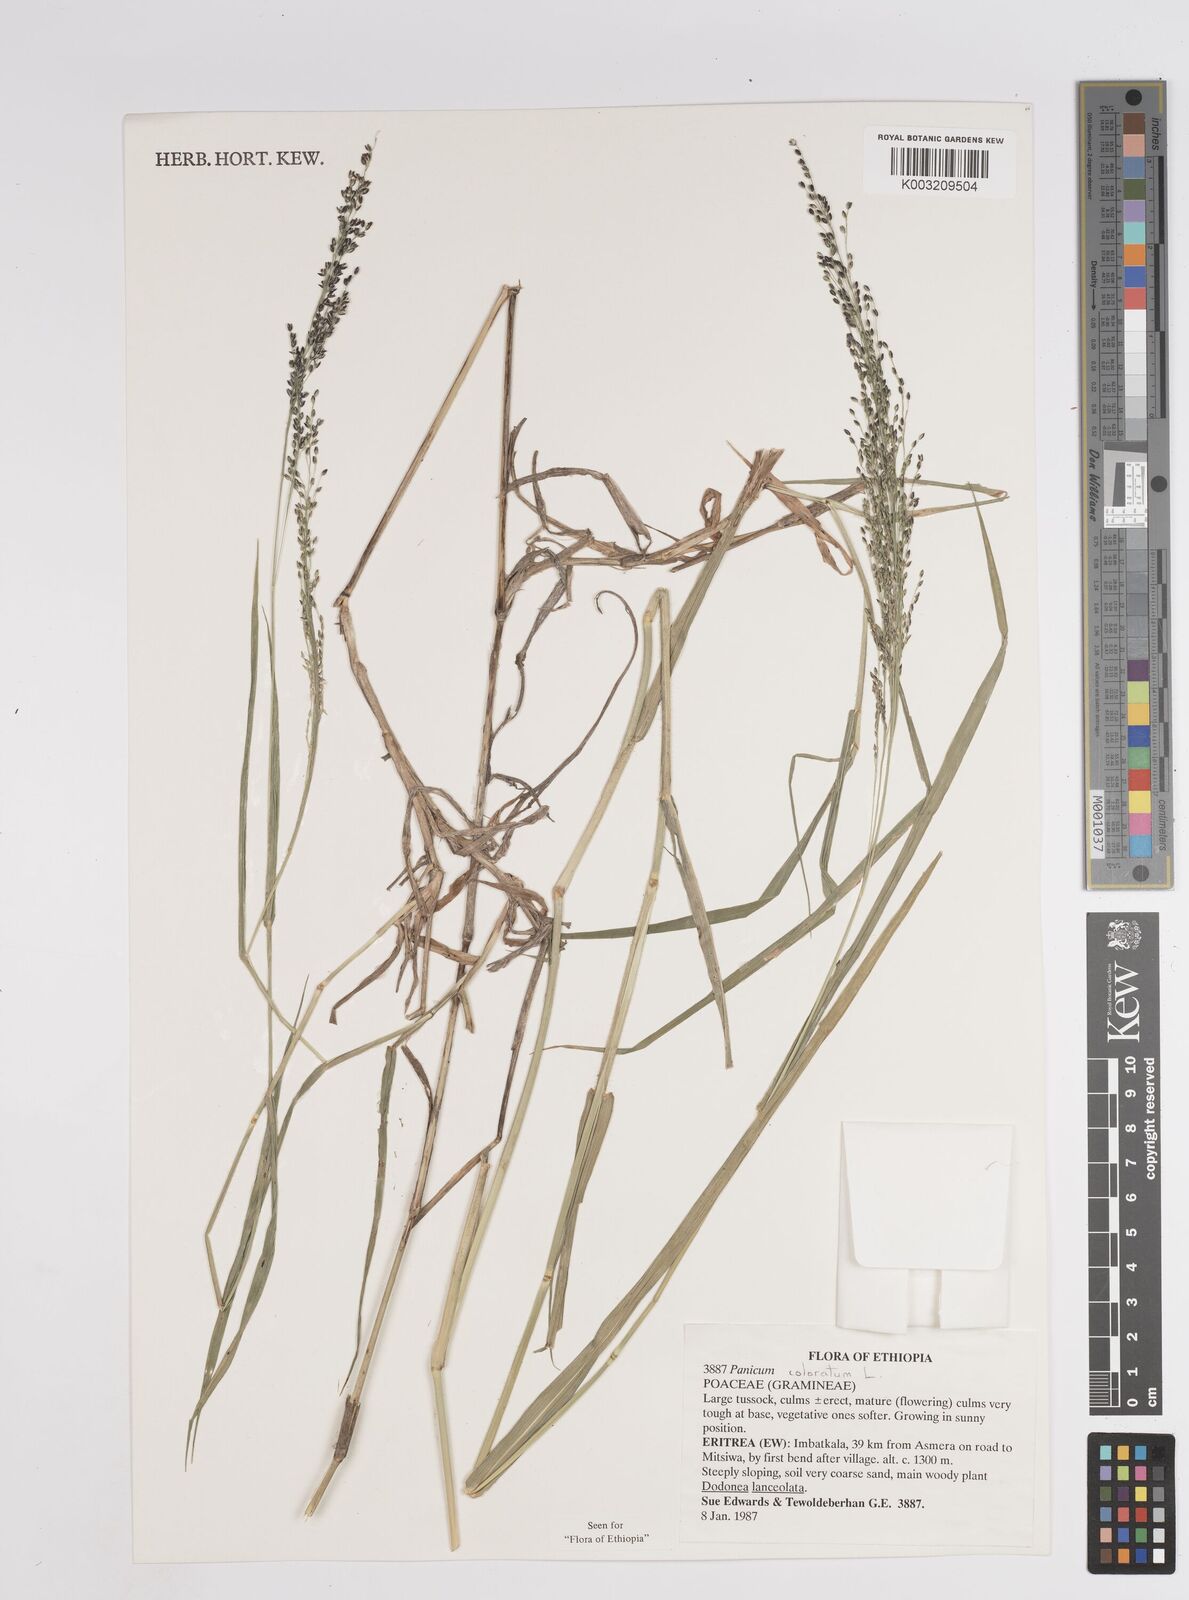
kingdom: Plantae
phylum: Tracheophyta
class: Liliopsida
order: Poales
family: Poaceae
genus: Panicum
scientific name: Panicum coloratum
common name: Kleingrass
